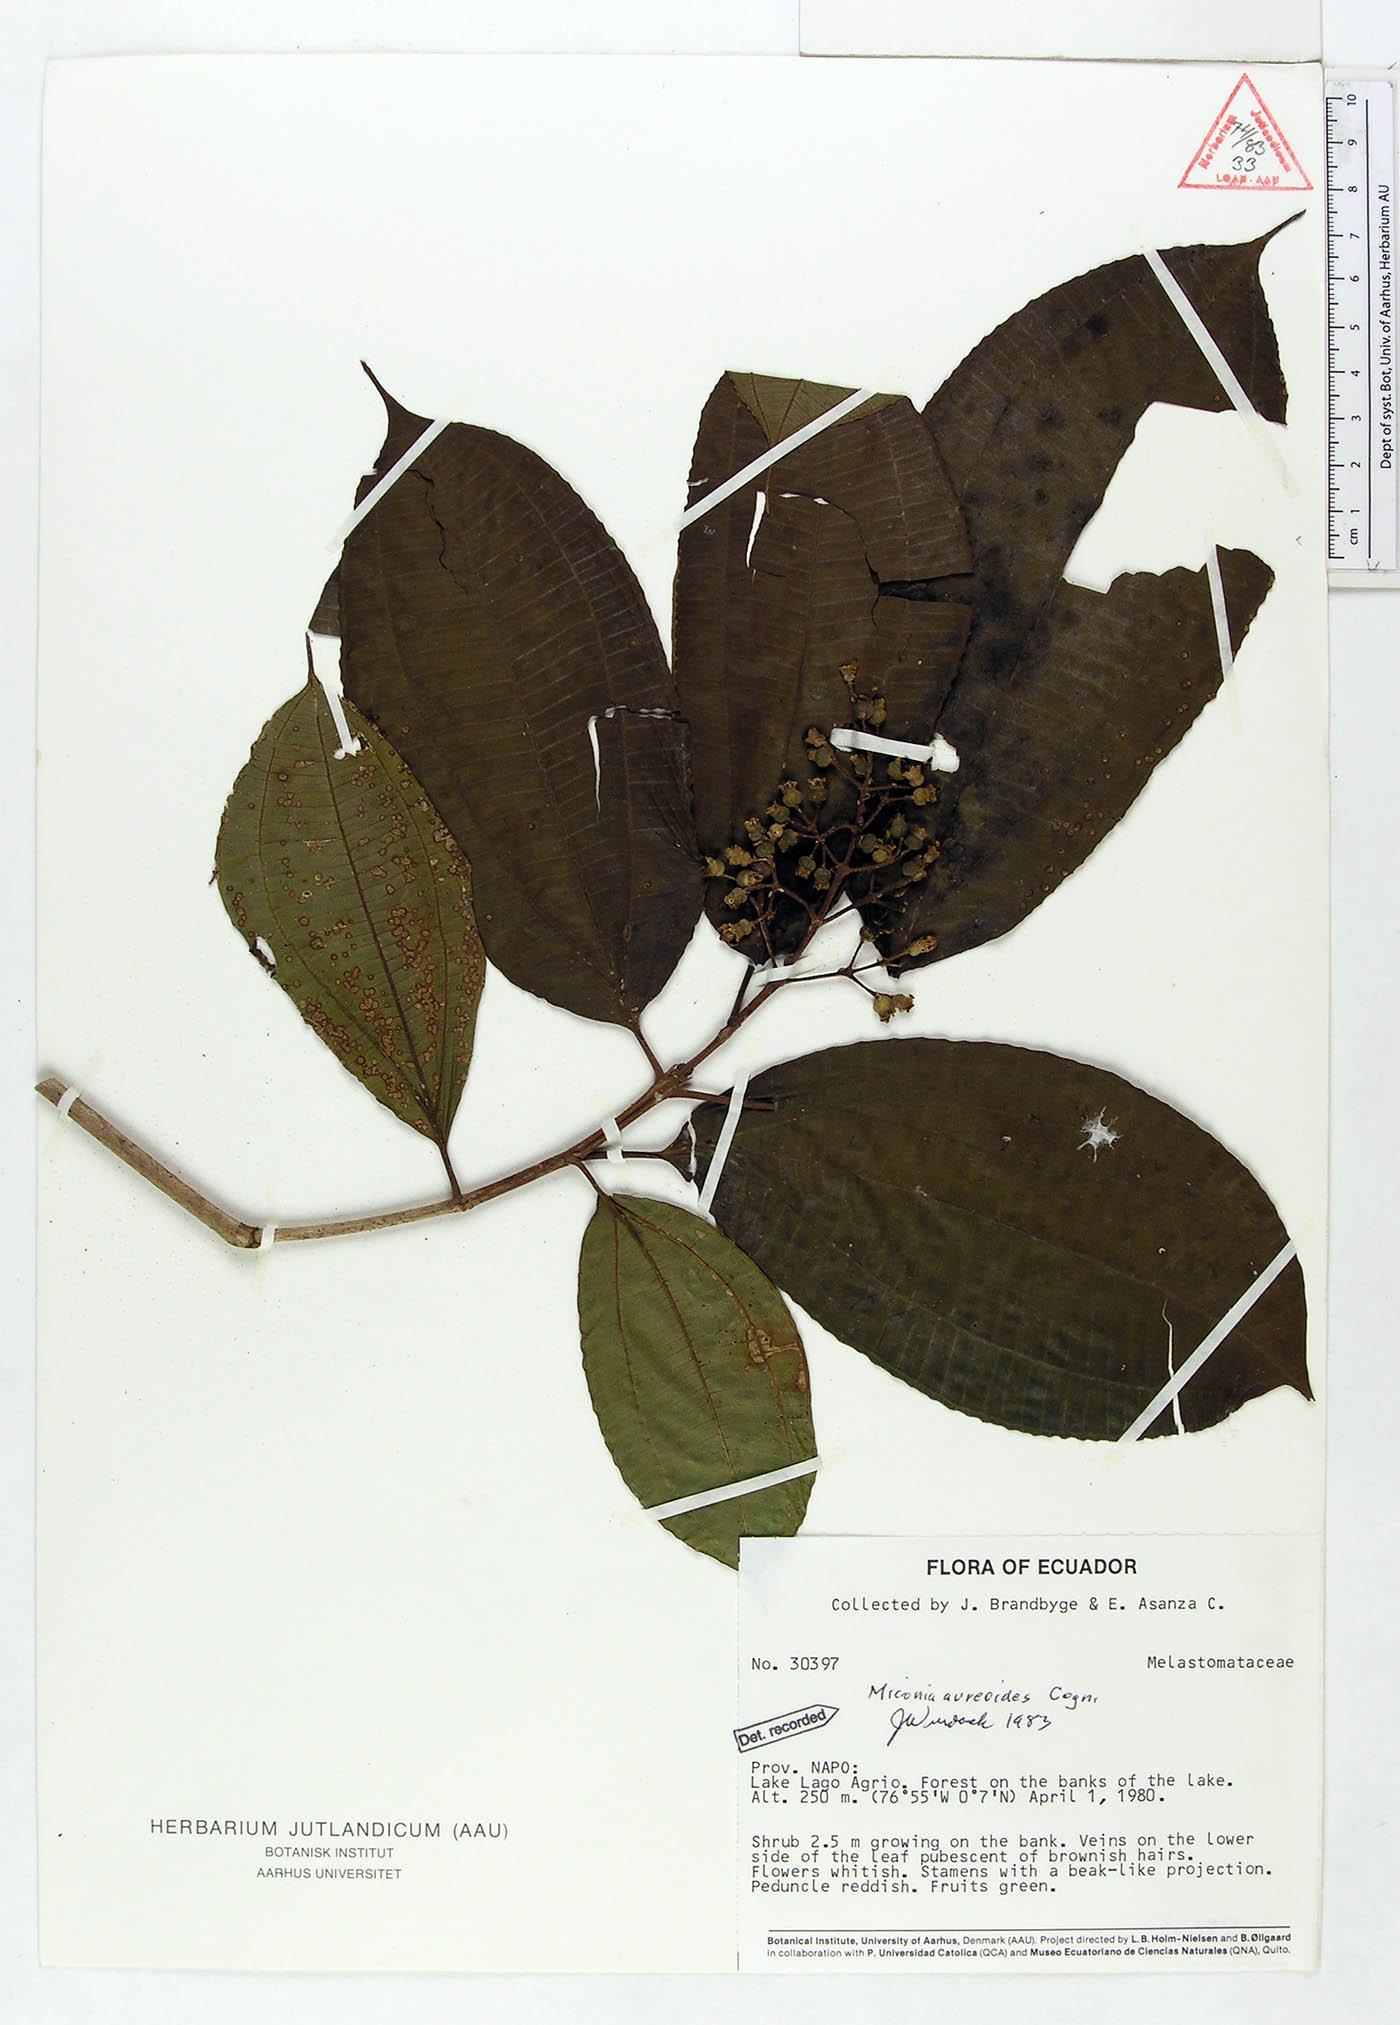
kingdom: Plantae
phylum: Tracheophyta
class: Magnoliopsida
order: Myrtales
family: Melastomataceae
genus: Miconia
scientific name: Miconia aureoides
